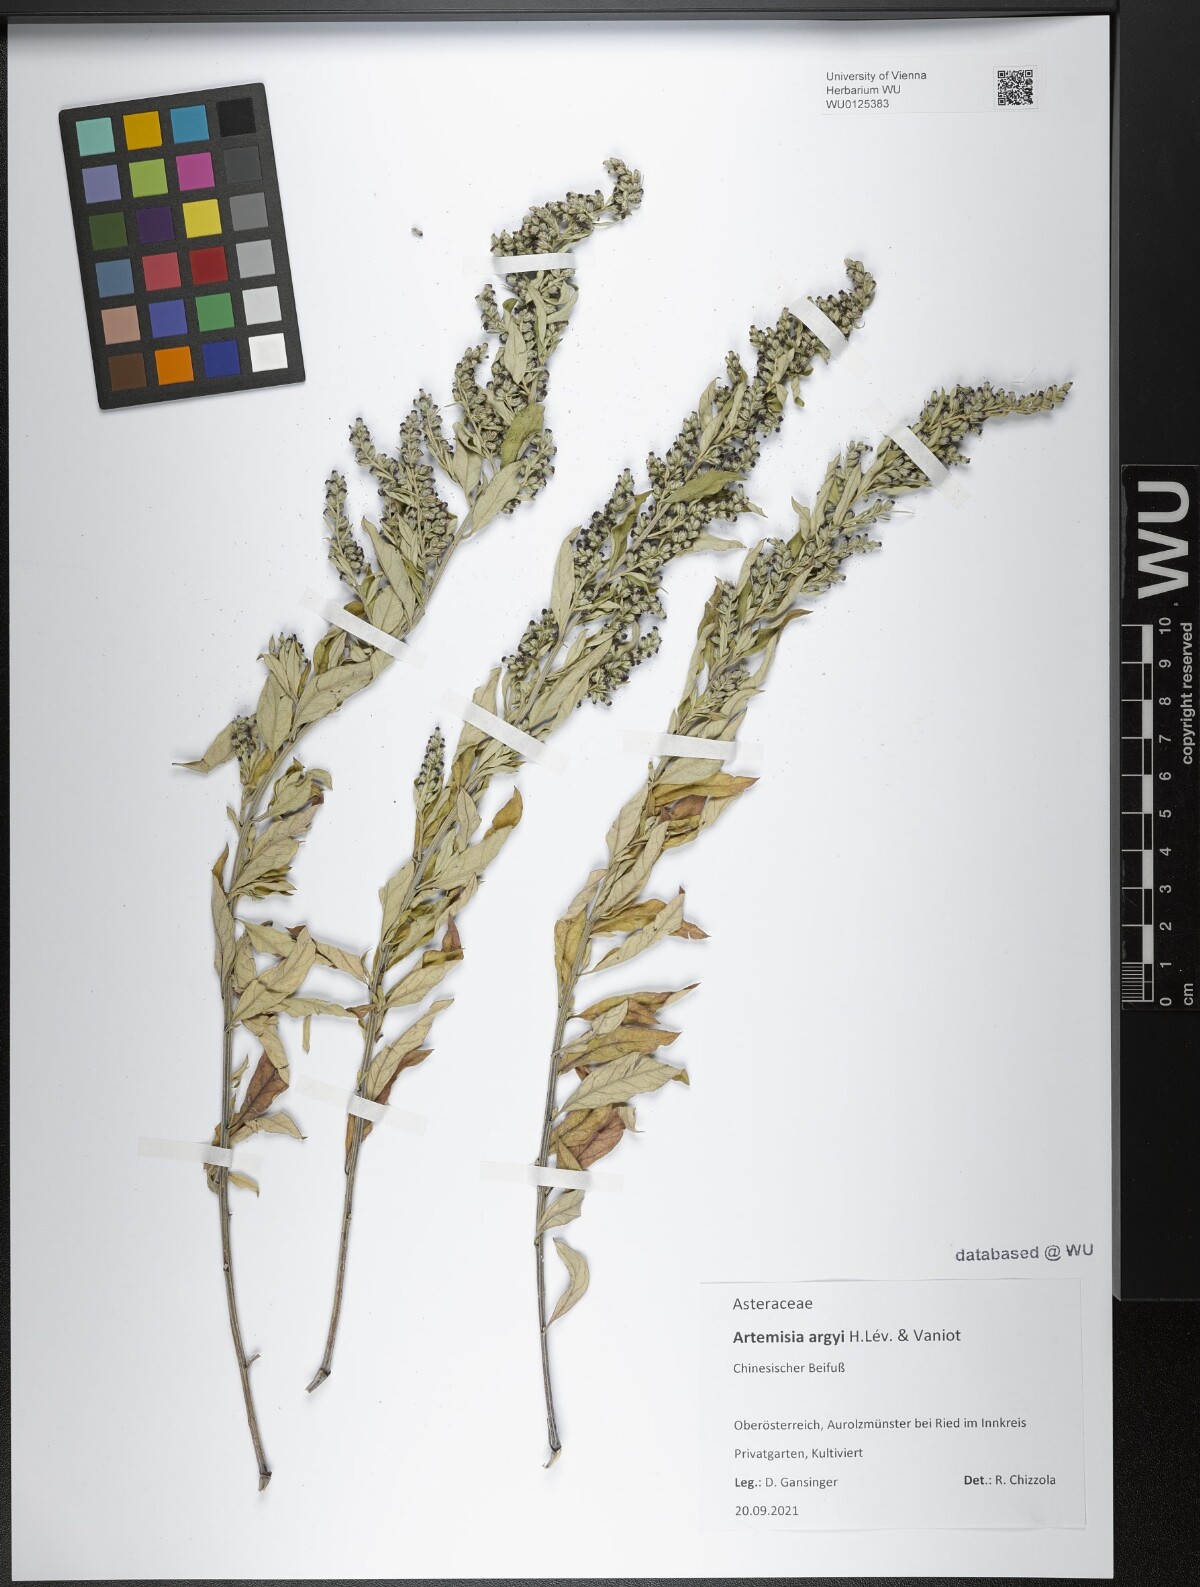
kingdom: Plantae
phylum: Tracheophyta
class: Magnoliopsida
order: Asterales
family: Asteraceae
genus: Artemisia
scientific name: Artemisia argyi
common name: Chinese mugwort
